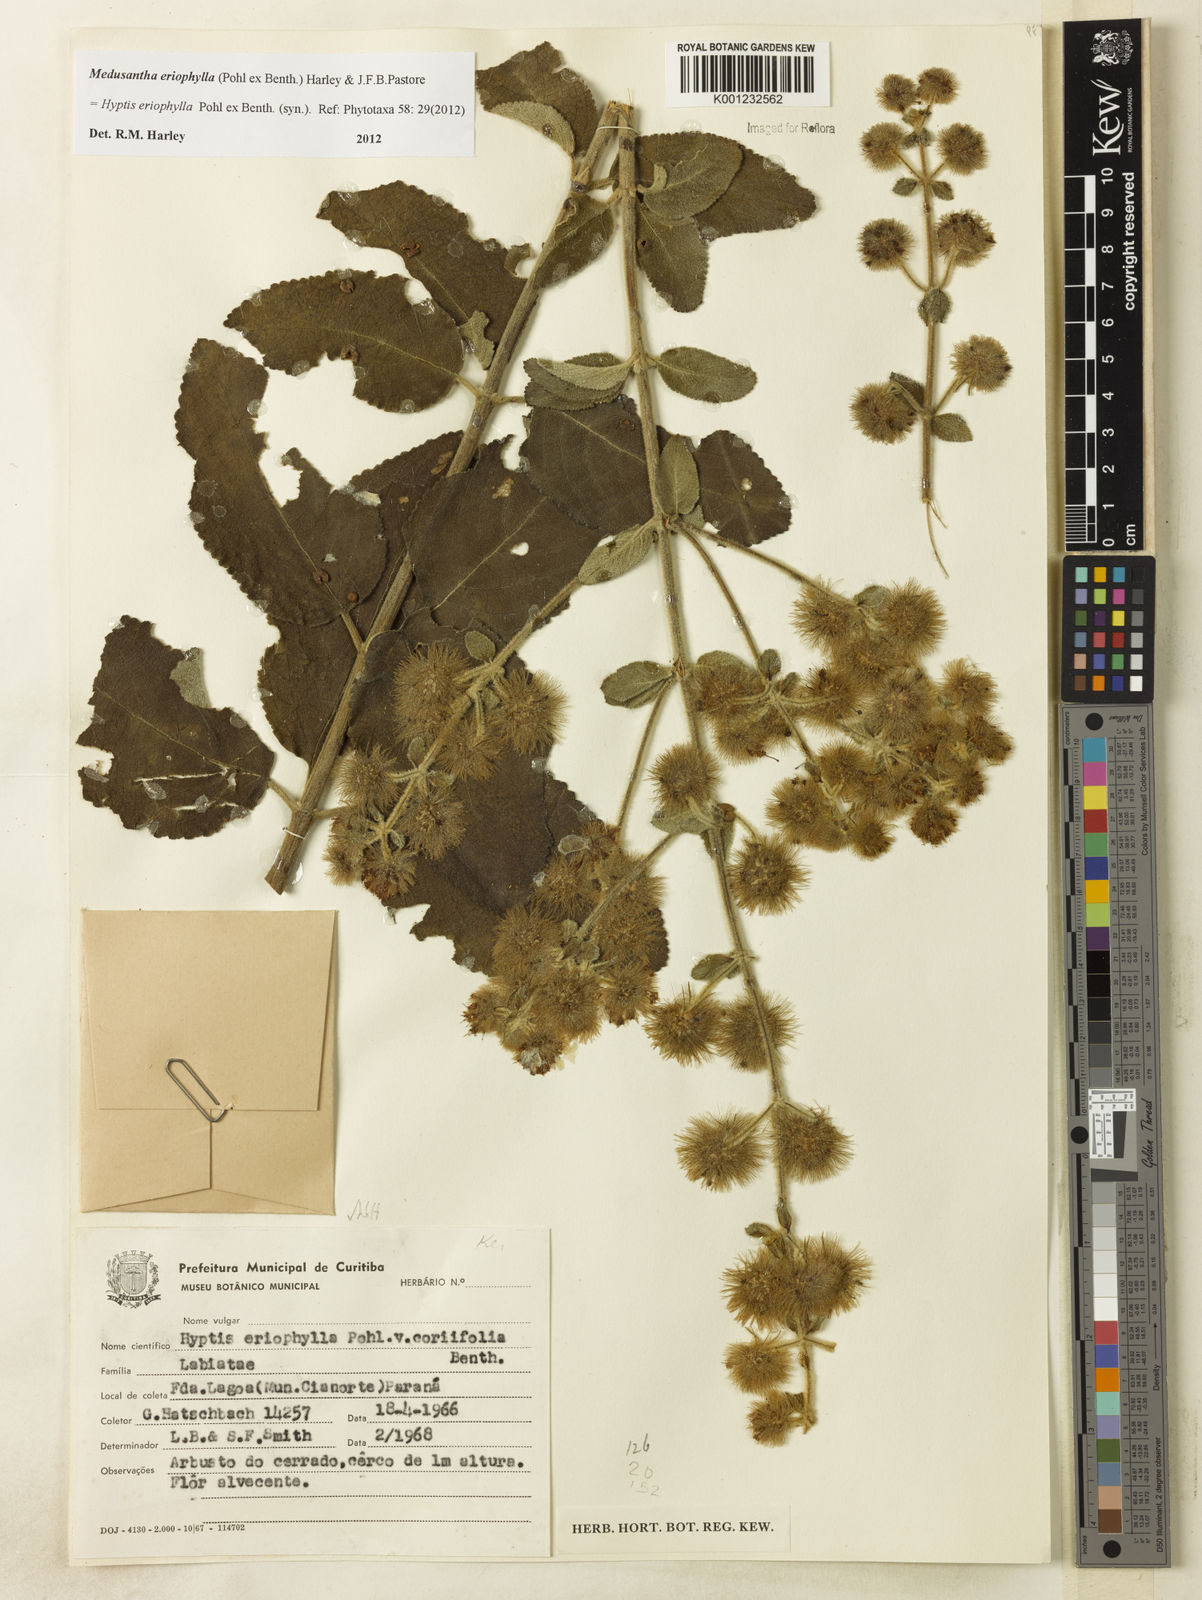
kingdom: Plantae
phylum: Tracheophyta
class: Magnoliopsida
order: Lamiales
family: Lamiaceae
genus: Medusantha
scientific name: Medusantha eriophylla
